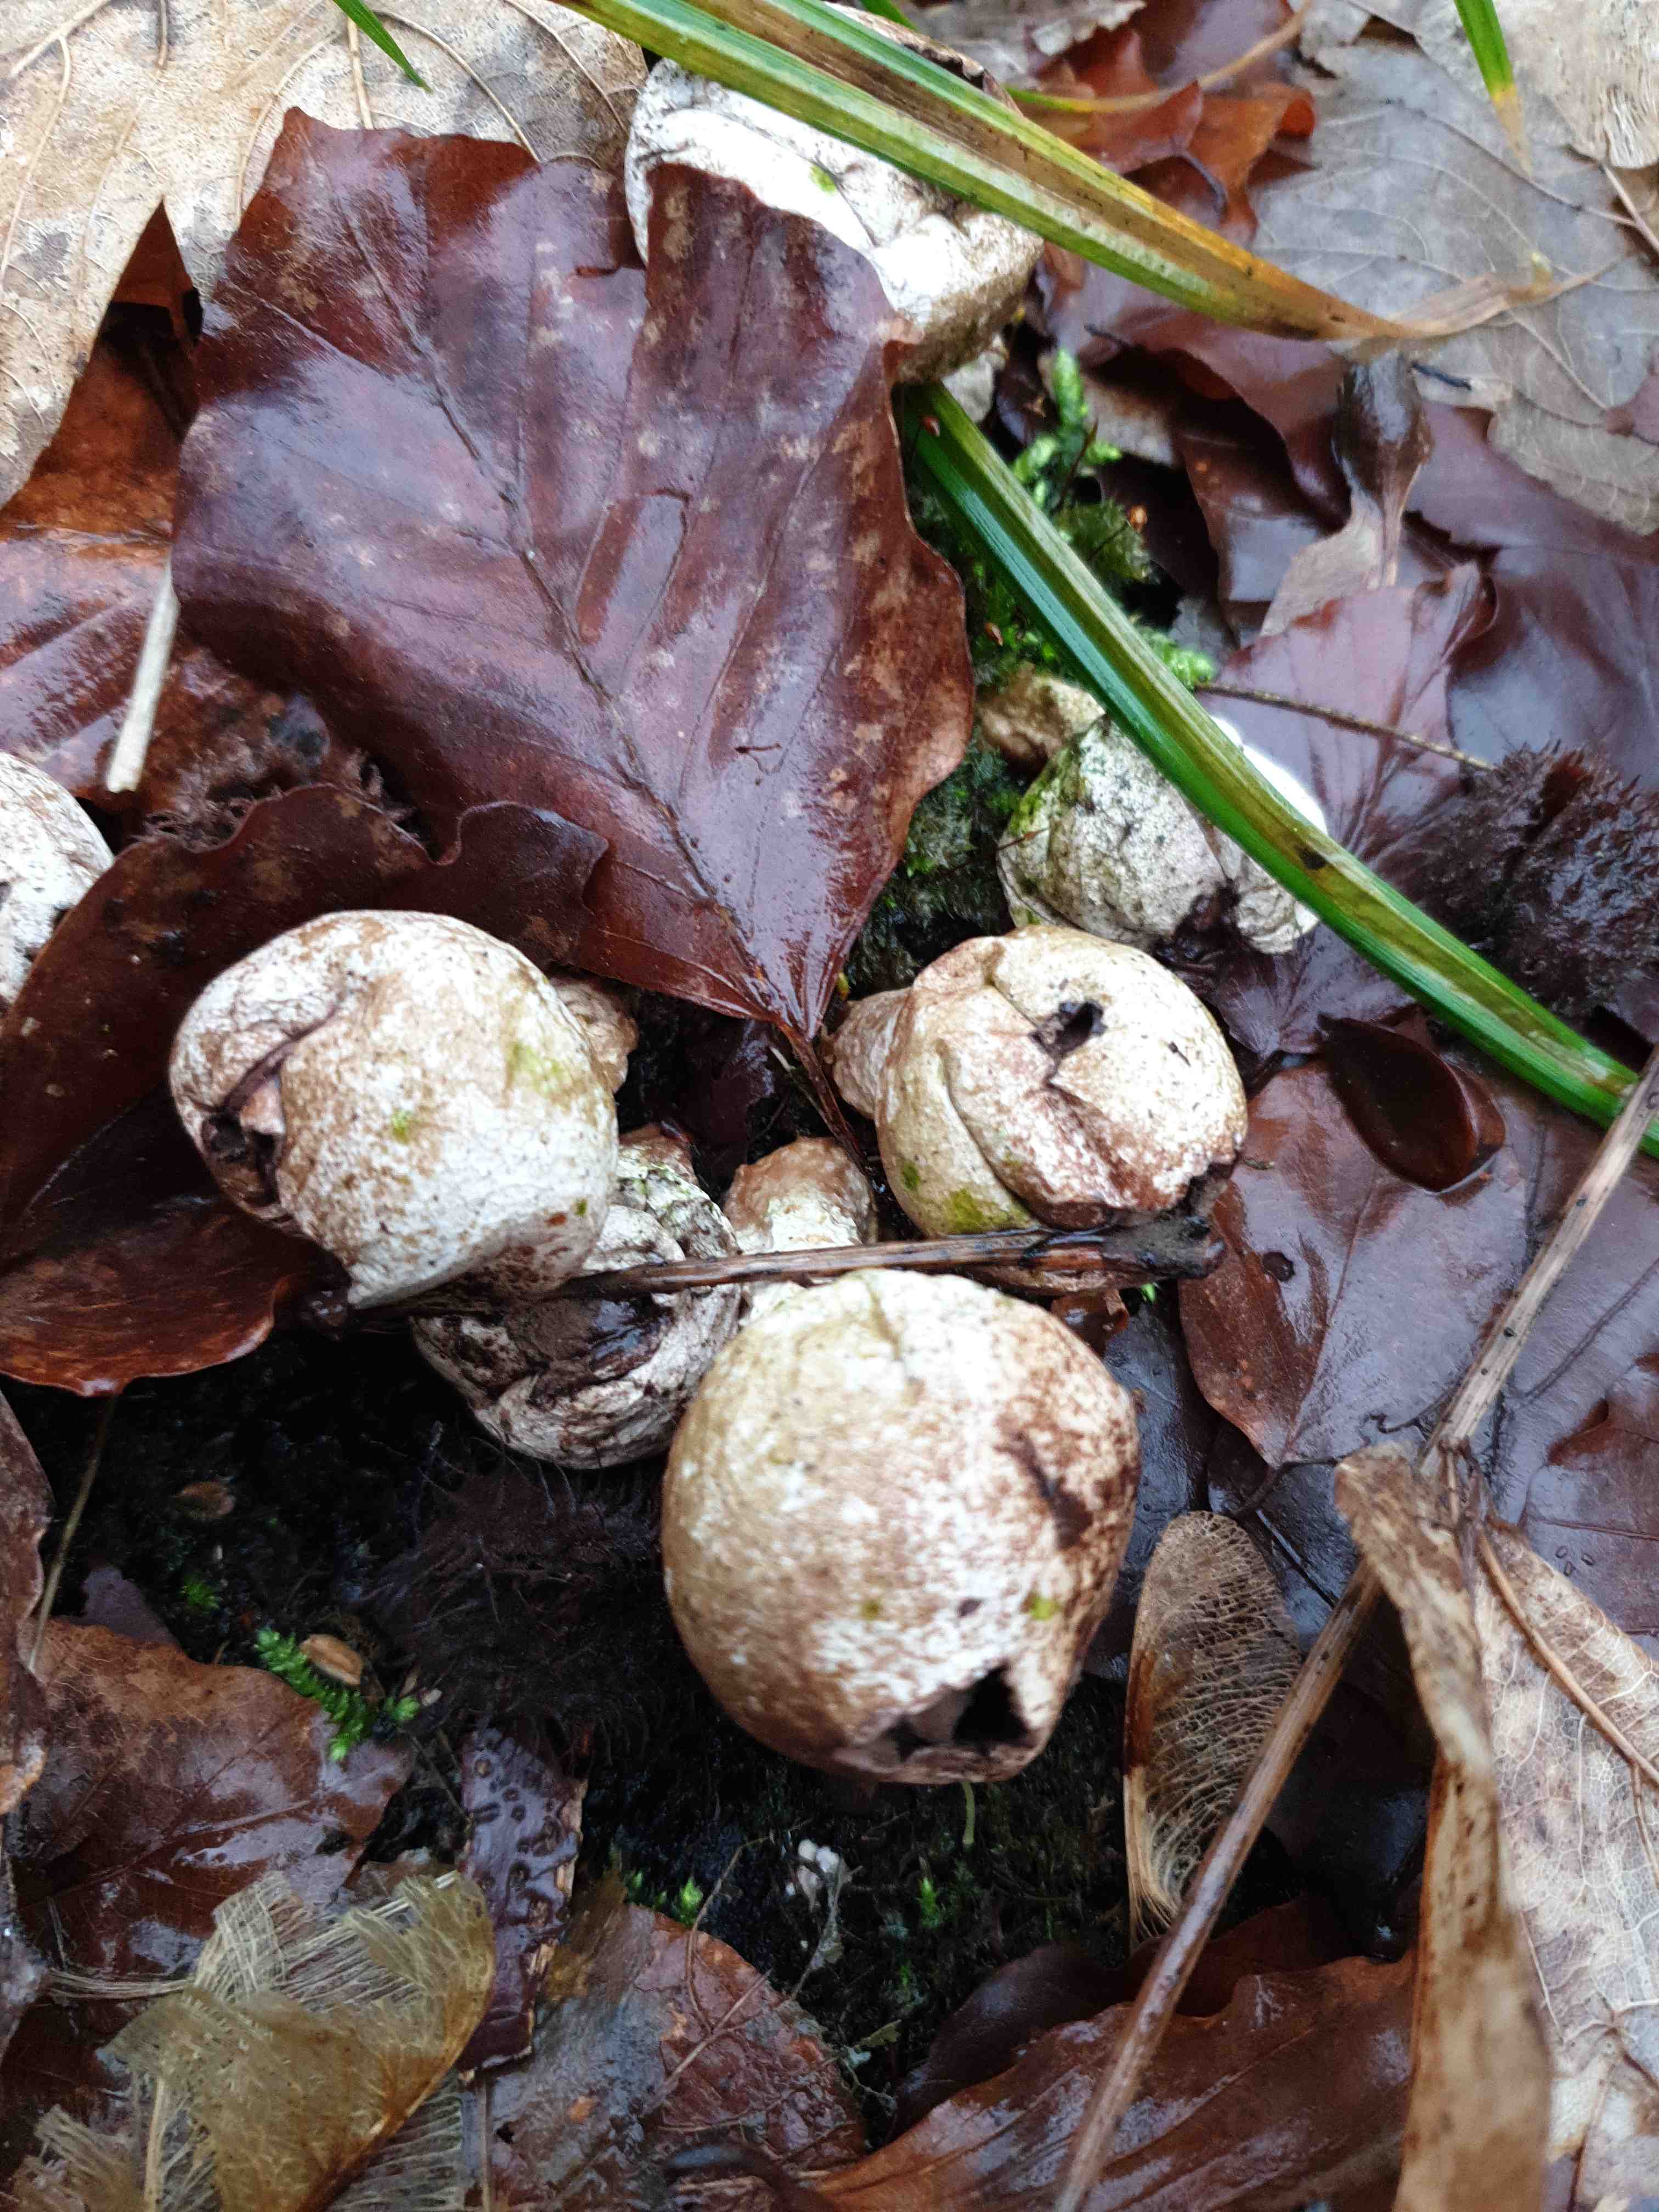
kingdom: Fungi
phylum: Basidiomycota
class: Agaricomycetes
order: Agaricales
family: Lycoperdaceae
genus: Apioperdon
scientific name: Apioperdon pyriforme
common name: pære-støvbold
